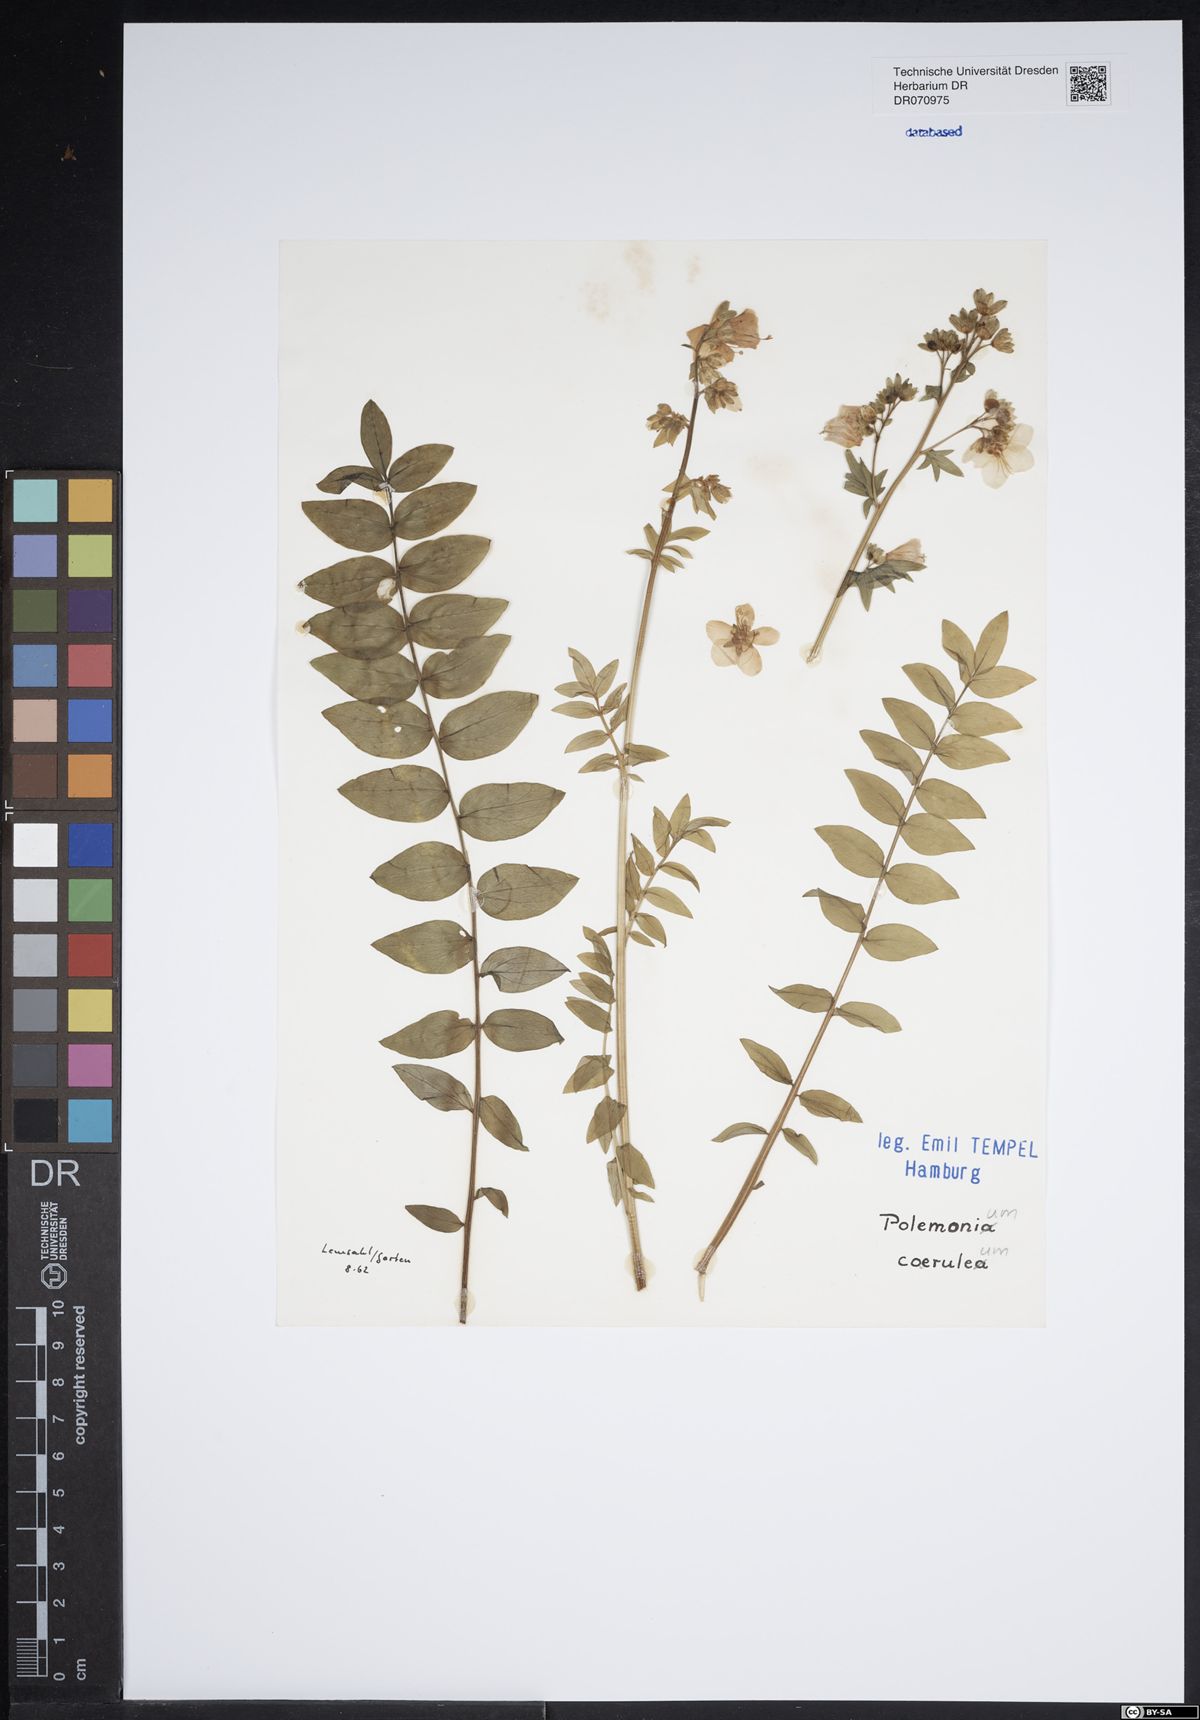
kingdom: Plantae
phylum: Tracheophyta
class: Magnoliopsida
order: Ericales
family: Polemoniaceae
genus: Polemonium
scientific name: Polemonium caeruleum
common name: Jacob's-ladder
